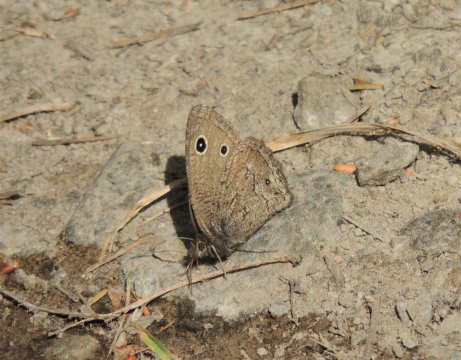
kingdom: Animalia
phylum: Arthropoda
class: Insecta
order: Lepidoptera
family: Nymphalidae
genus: Cercyonis
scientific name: Cercyonis oetus
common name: Small Wood-Nymph
